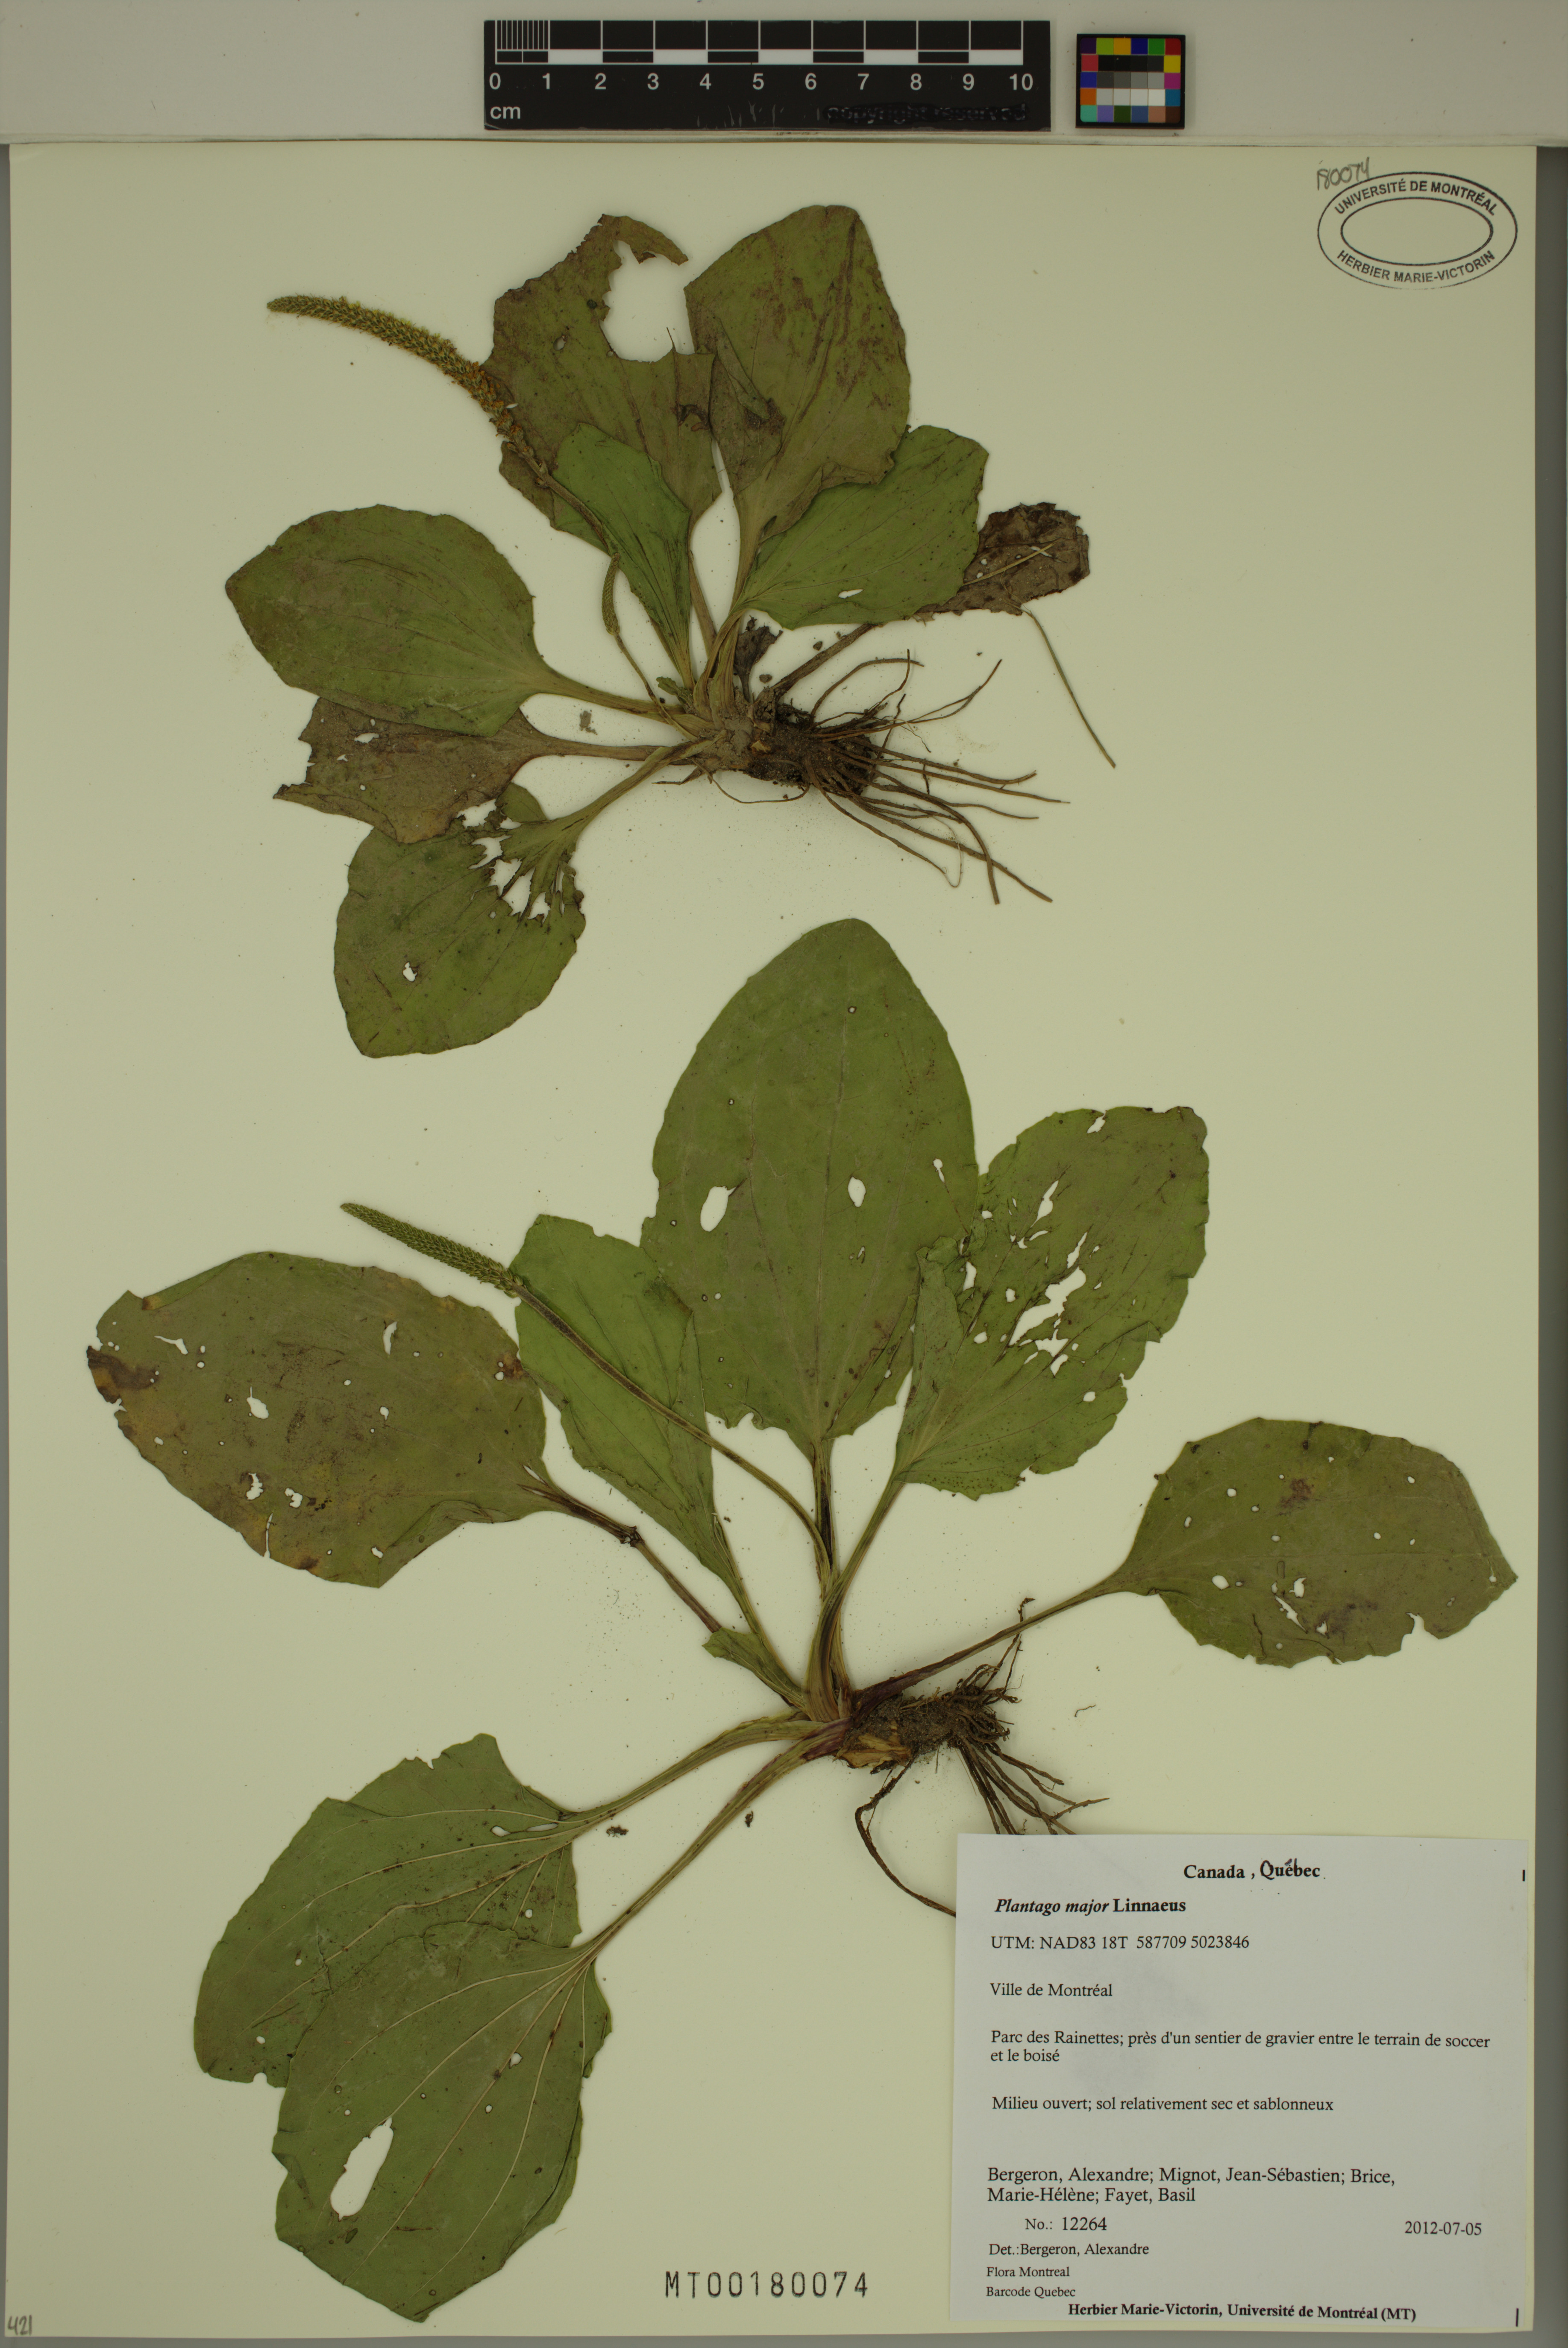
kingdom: Plantae
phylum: Tracheophyta
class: Magnoliopsida
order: Lamiales
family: Plantaginaceae
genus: Plantago
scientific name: Plantago major
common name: Common plantain
